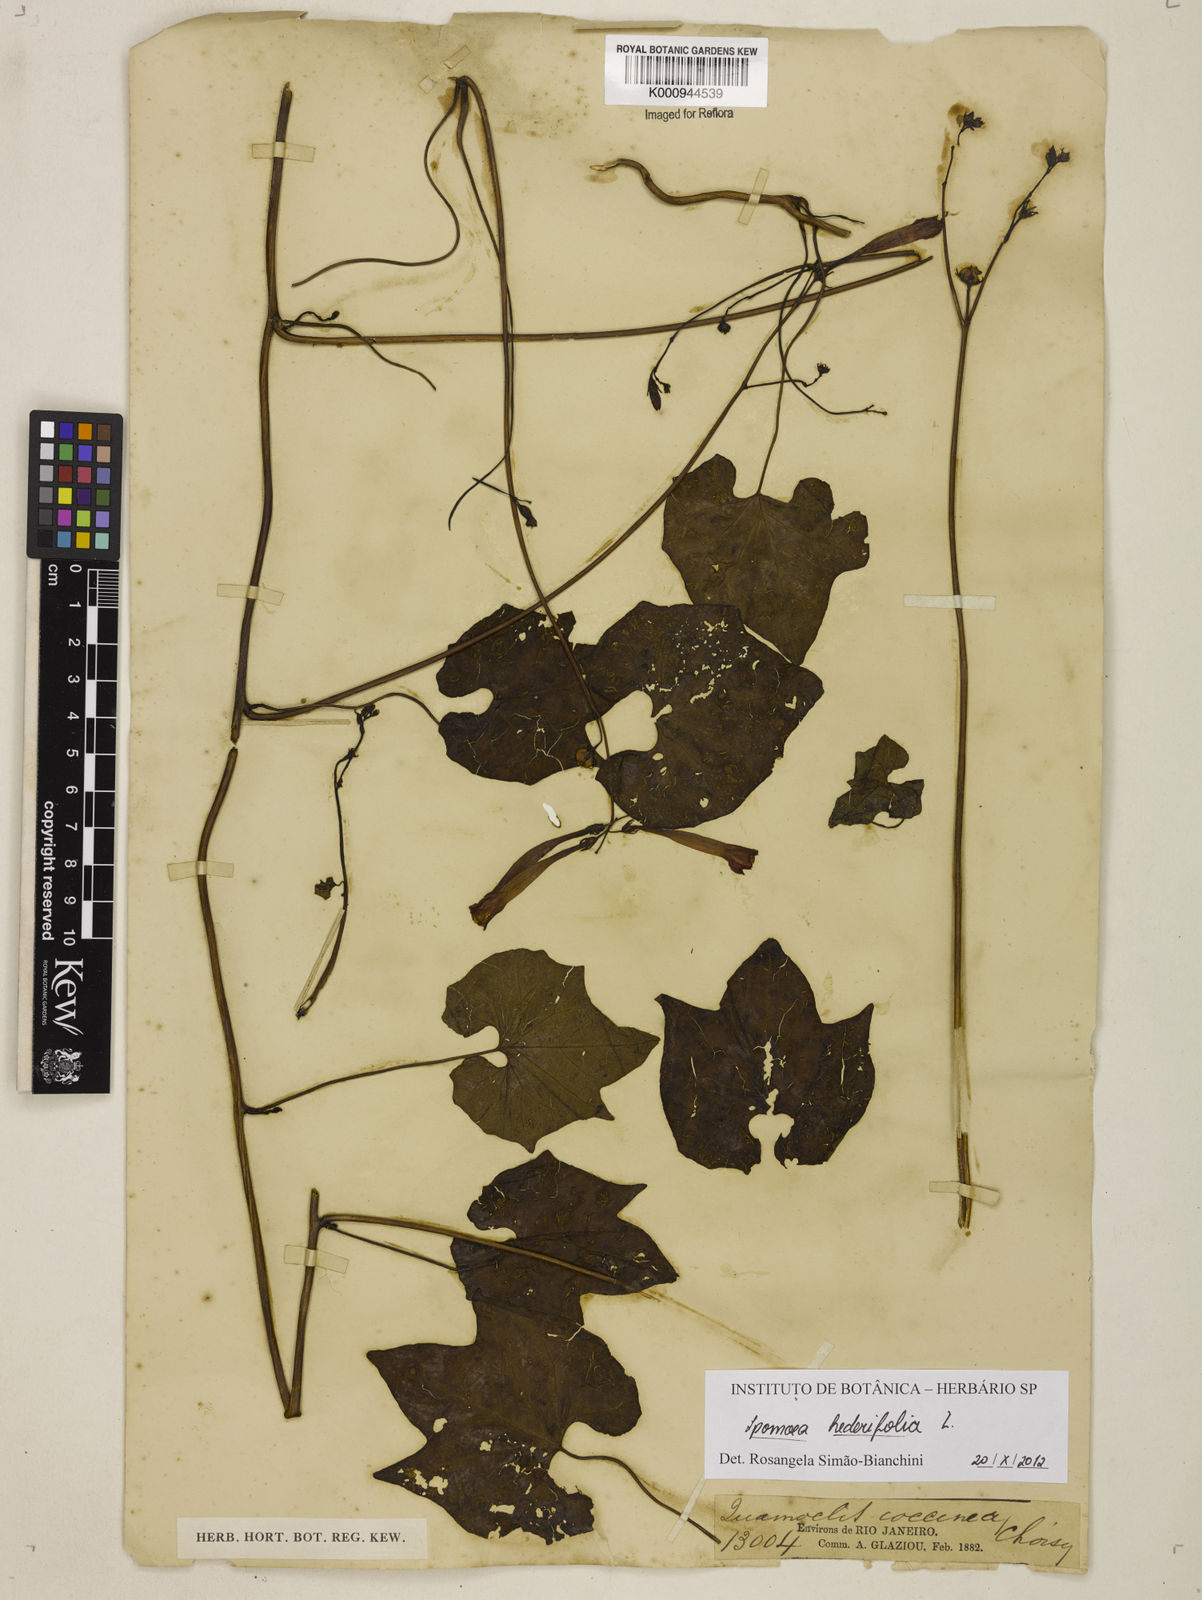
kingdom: Plantae
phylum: Tracheophyta
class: Magnoliopsida
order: Solanales
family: Convolvulaceae
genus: Ipomoea
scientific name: Ipomoea hederifolia
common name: Ivy-leaf morning-glory
